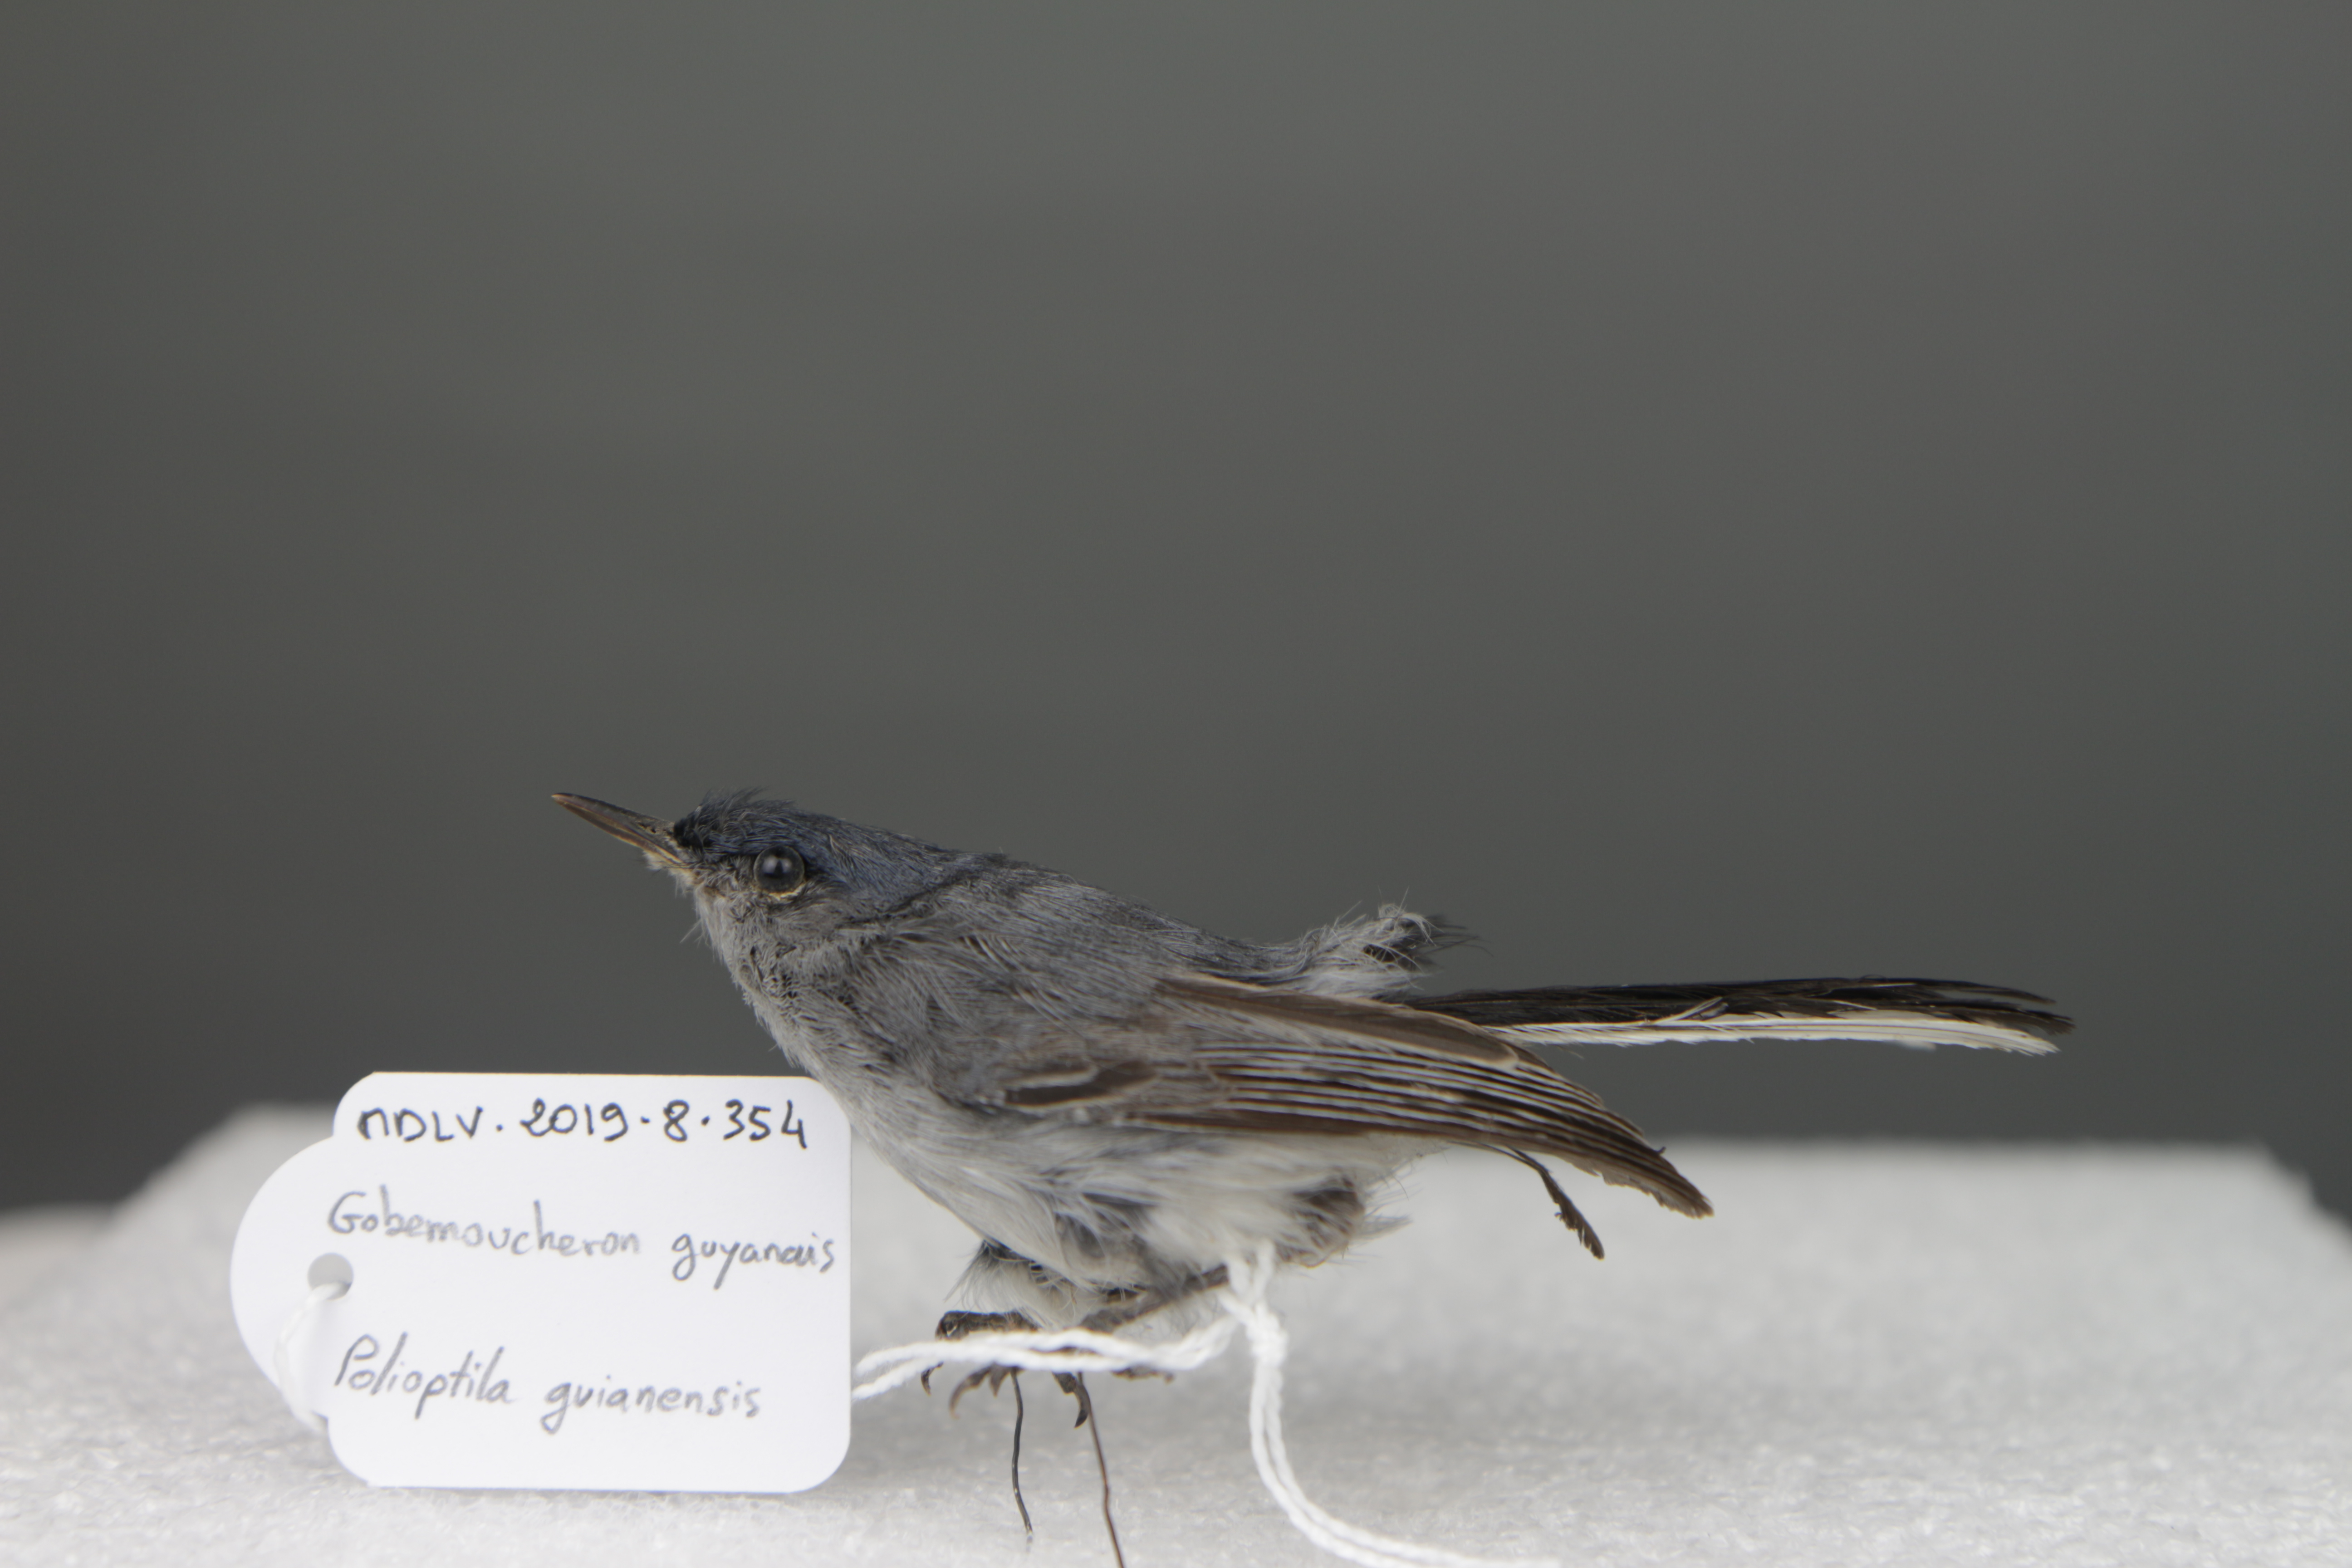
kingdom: Animalia
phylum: Chordata
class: Aves
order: Passeriformes
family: Polioptilidae
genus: Polioptila
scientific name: Polioptila guianensis
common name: Guianan gnatcatcher
